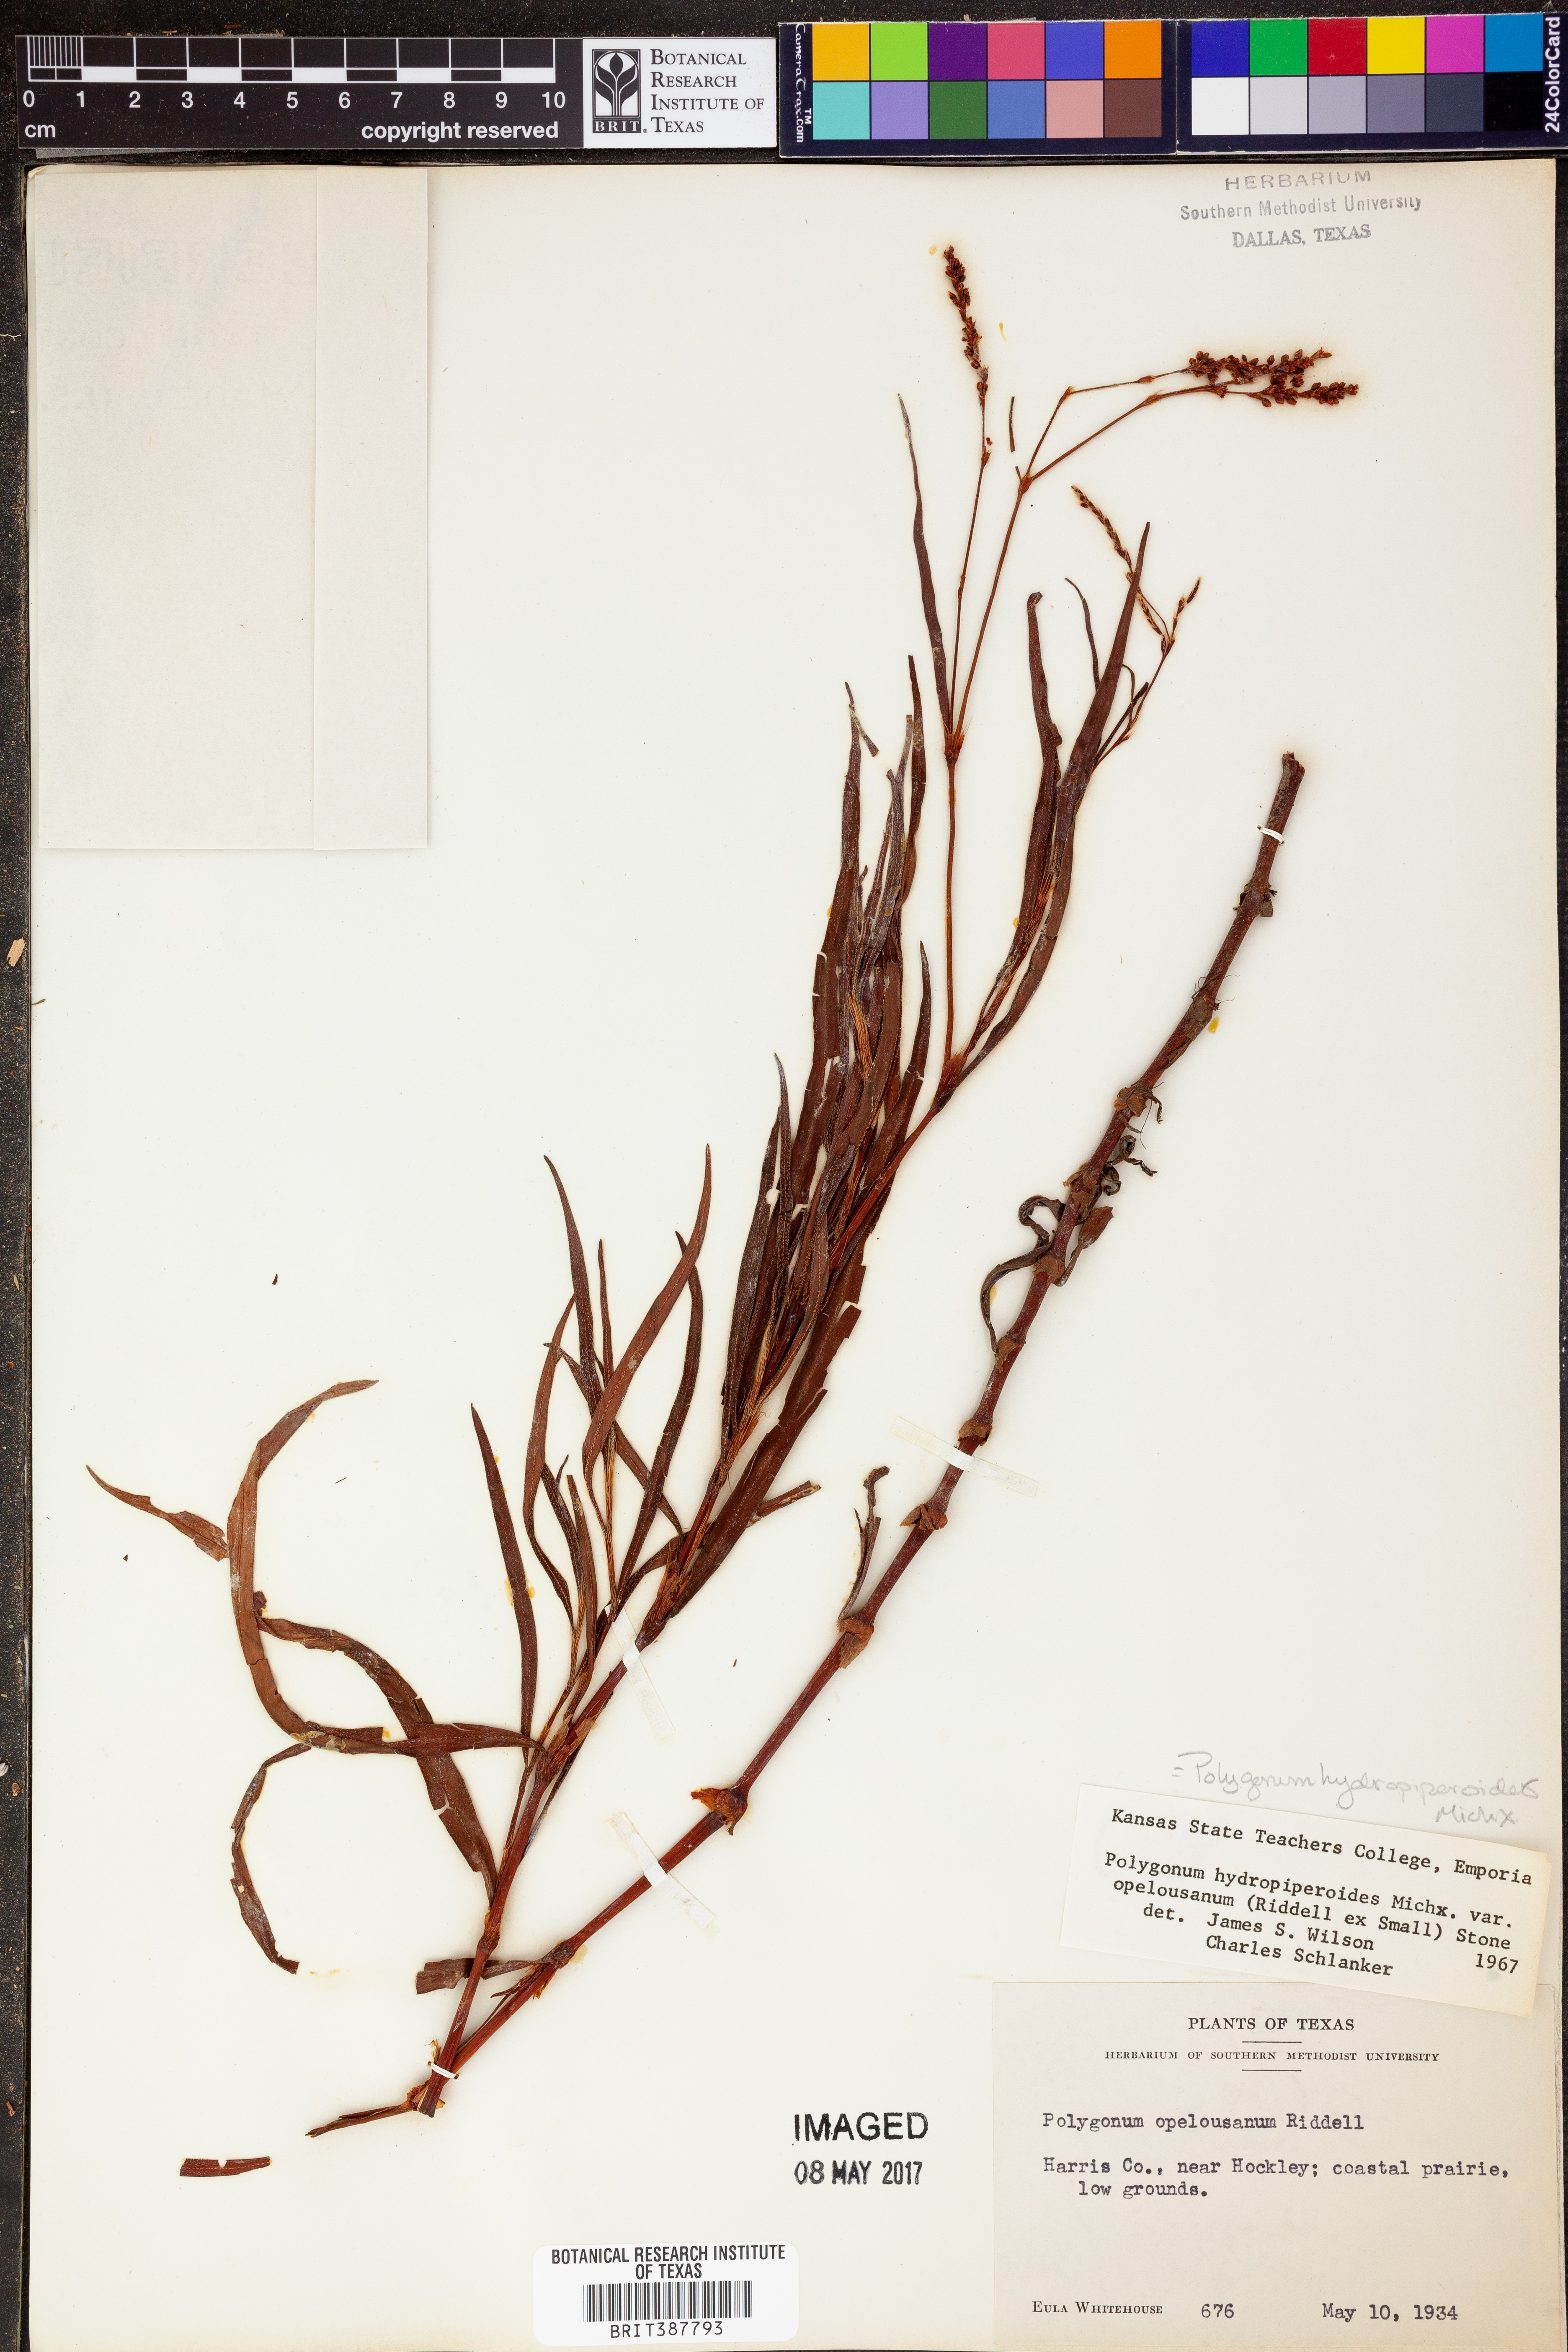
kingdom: Plantae
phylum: Tracheophyta
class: Magnoliopsida
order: Caryophyllales
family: Polygonaceae
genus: Persicaria
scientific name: Persicaria hydropiperoides
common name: Swamp smartweed
